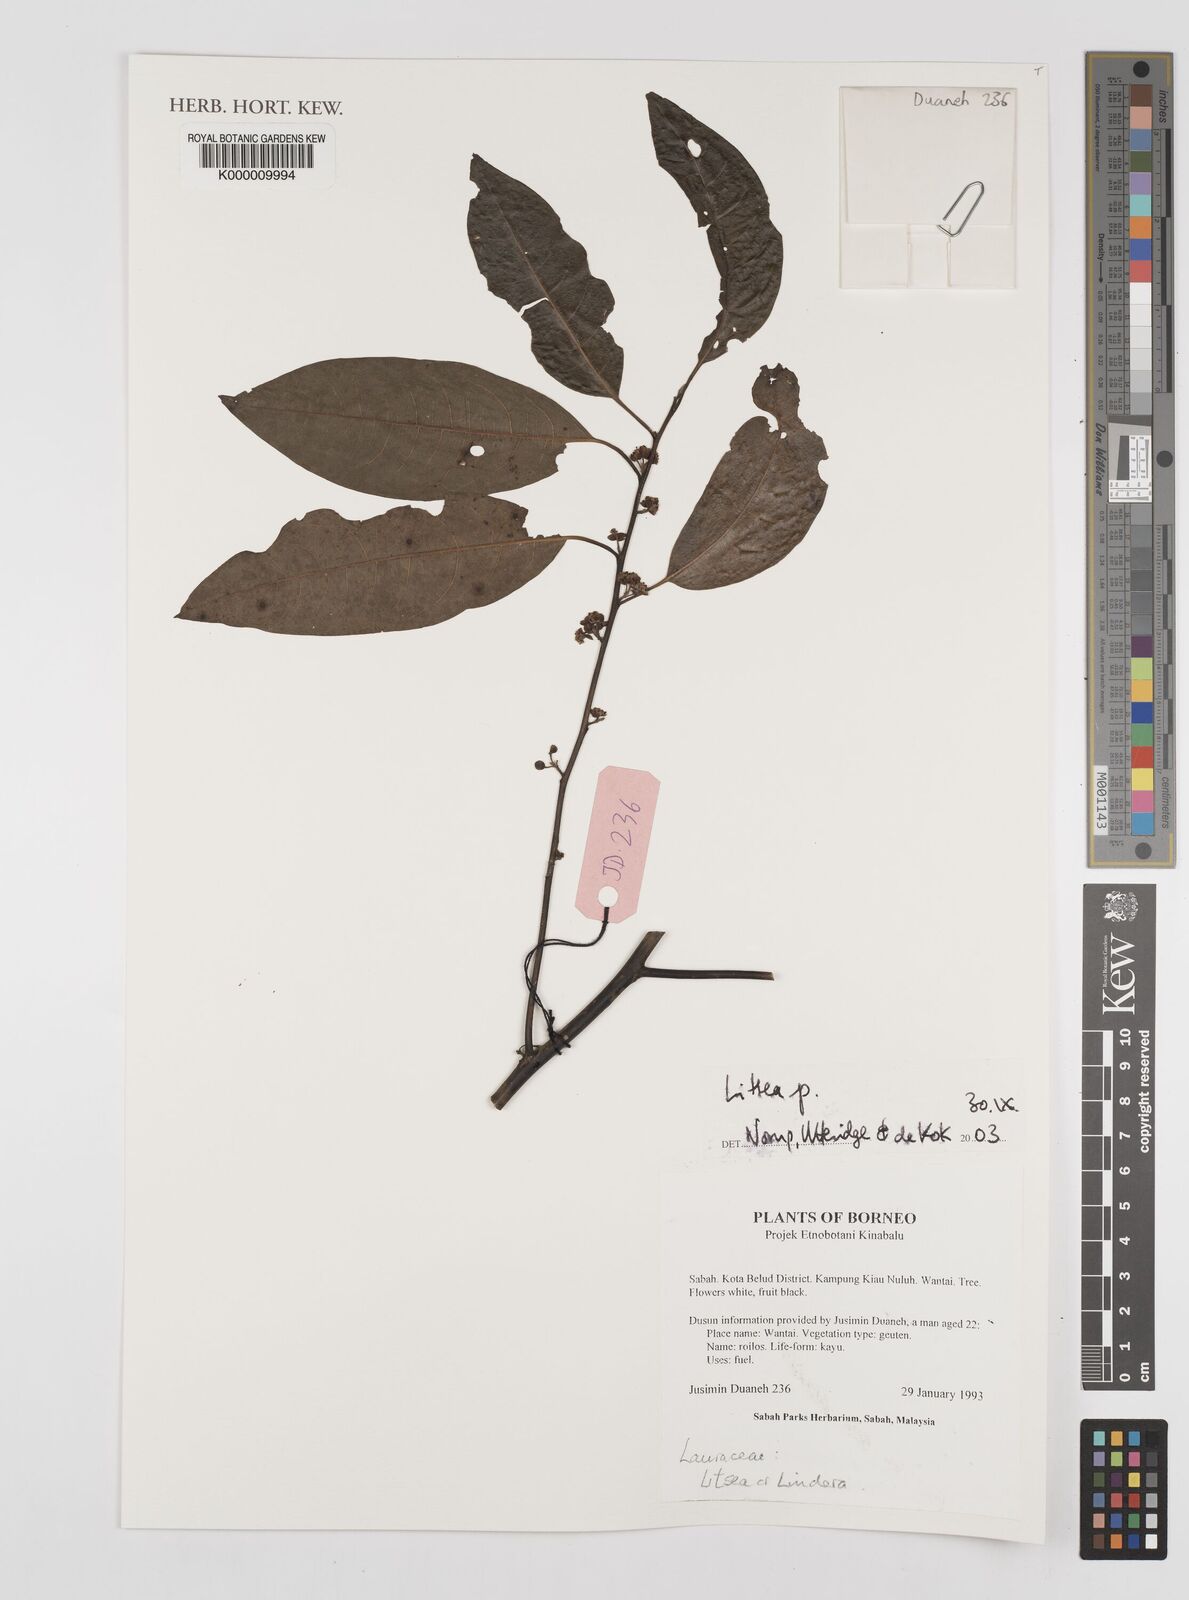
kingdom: Plantae
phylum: Tracheophyta
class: Magnoliopsida
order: Laurales
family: Lauraceae
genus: Litsea
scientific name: Litsea
